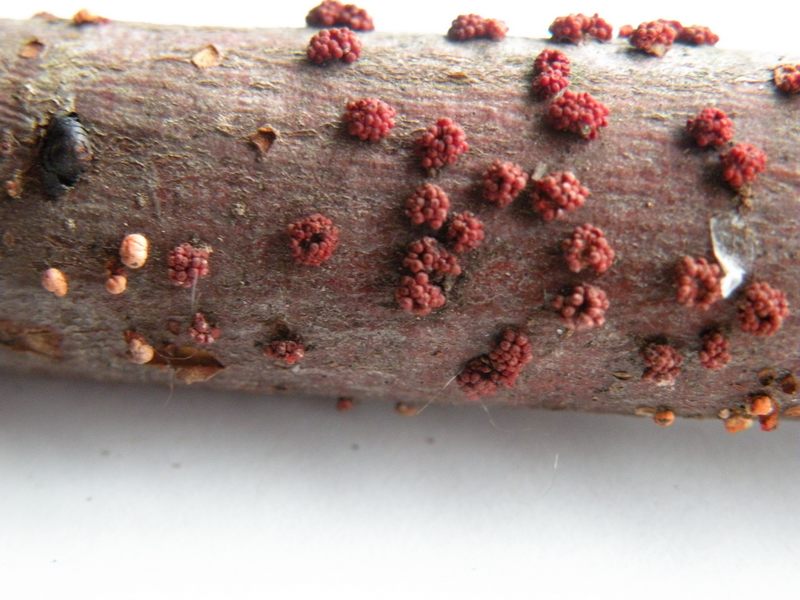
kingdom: Fungi
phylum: Ascomycota
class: Sordariomycetes
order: Hypocreales
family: Nectriaceae
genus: Nectria
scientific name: Nectria cinnabarina
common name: almindelig cinnobersvamp
